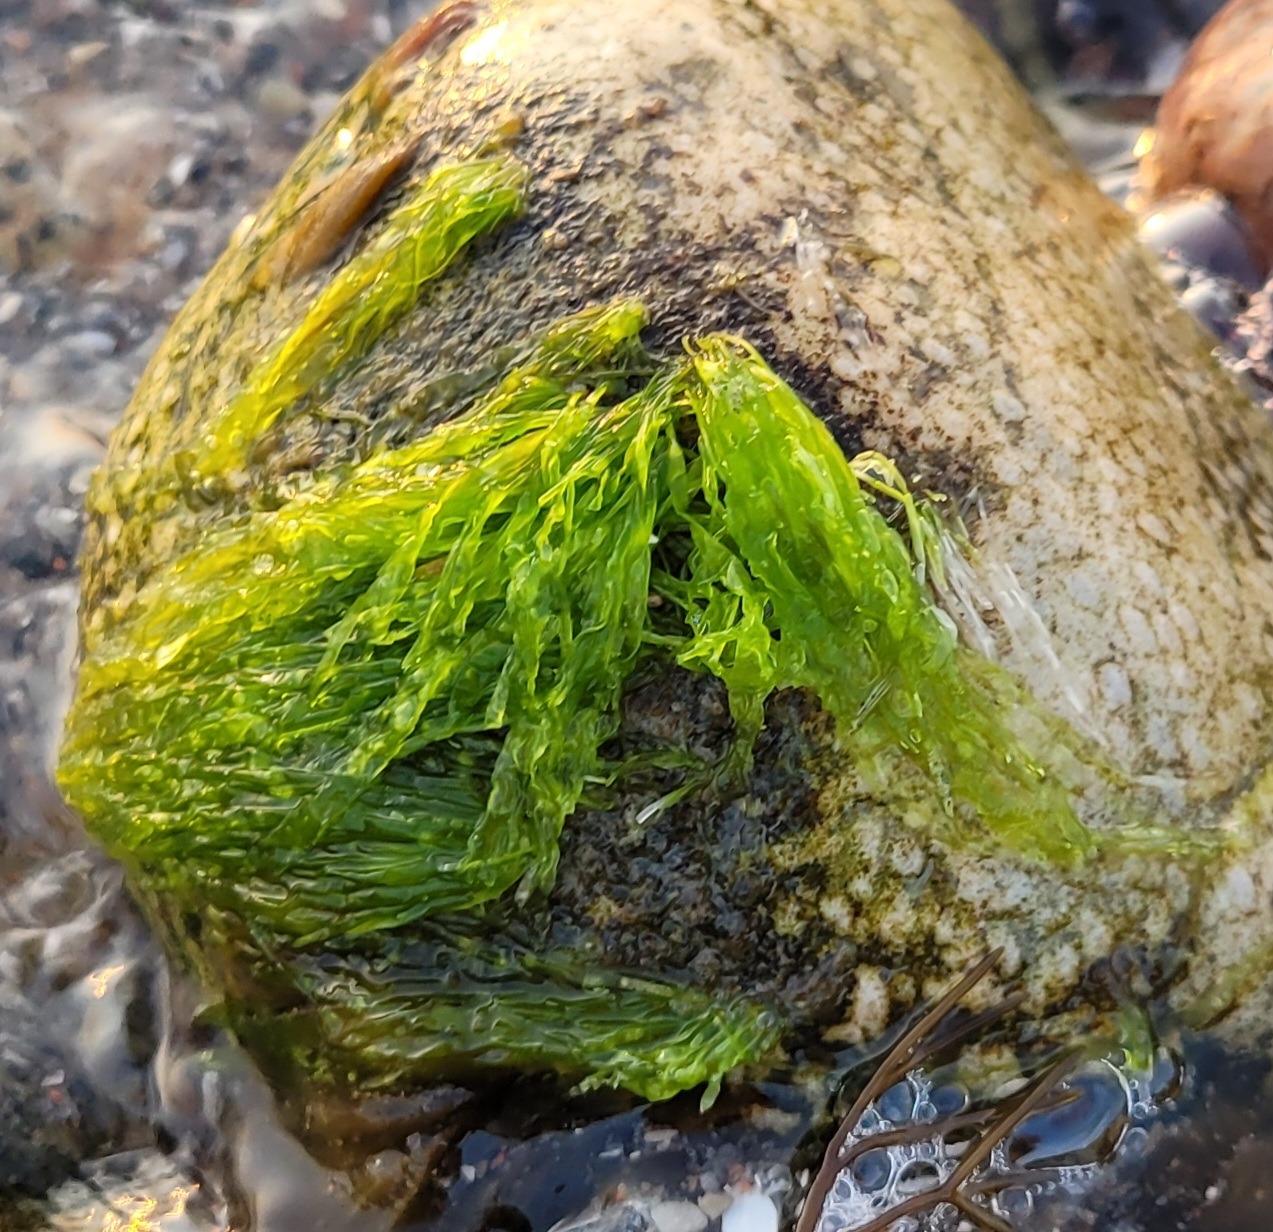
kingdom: Plantae
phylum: Chlorophyta
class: Ulvophyceae
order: Ulvales
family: Ulvaceae
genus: Ulva
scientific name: Ulva intestinalis
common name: Tarm-rørhinde
